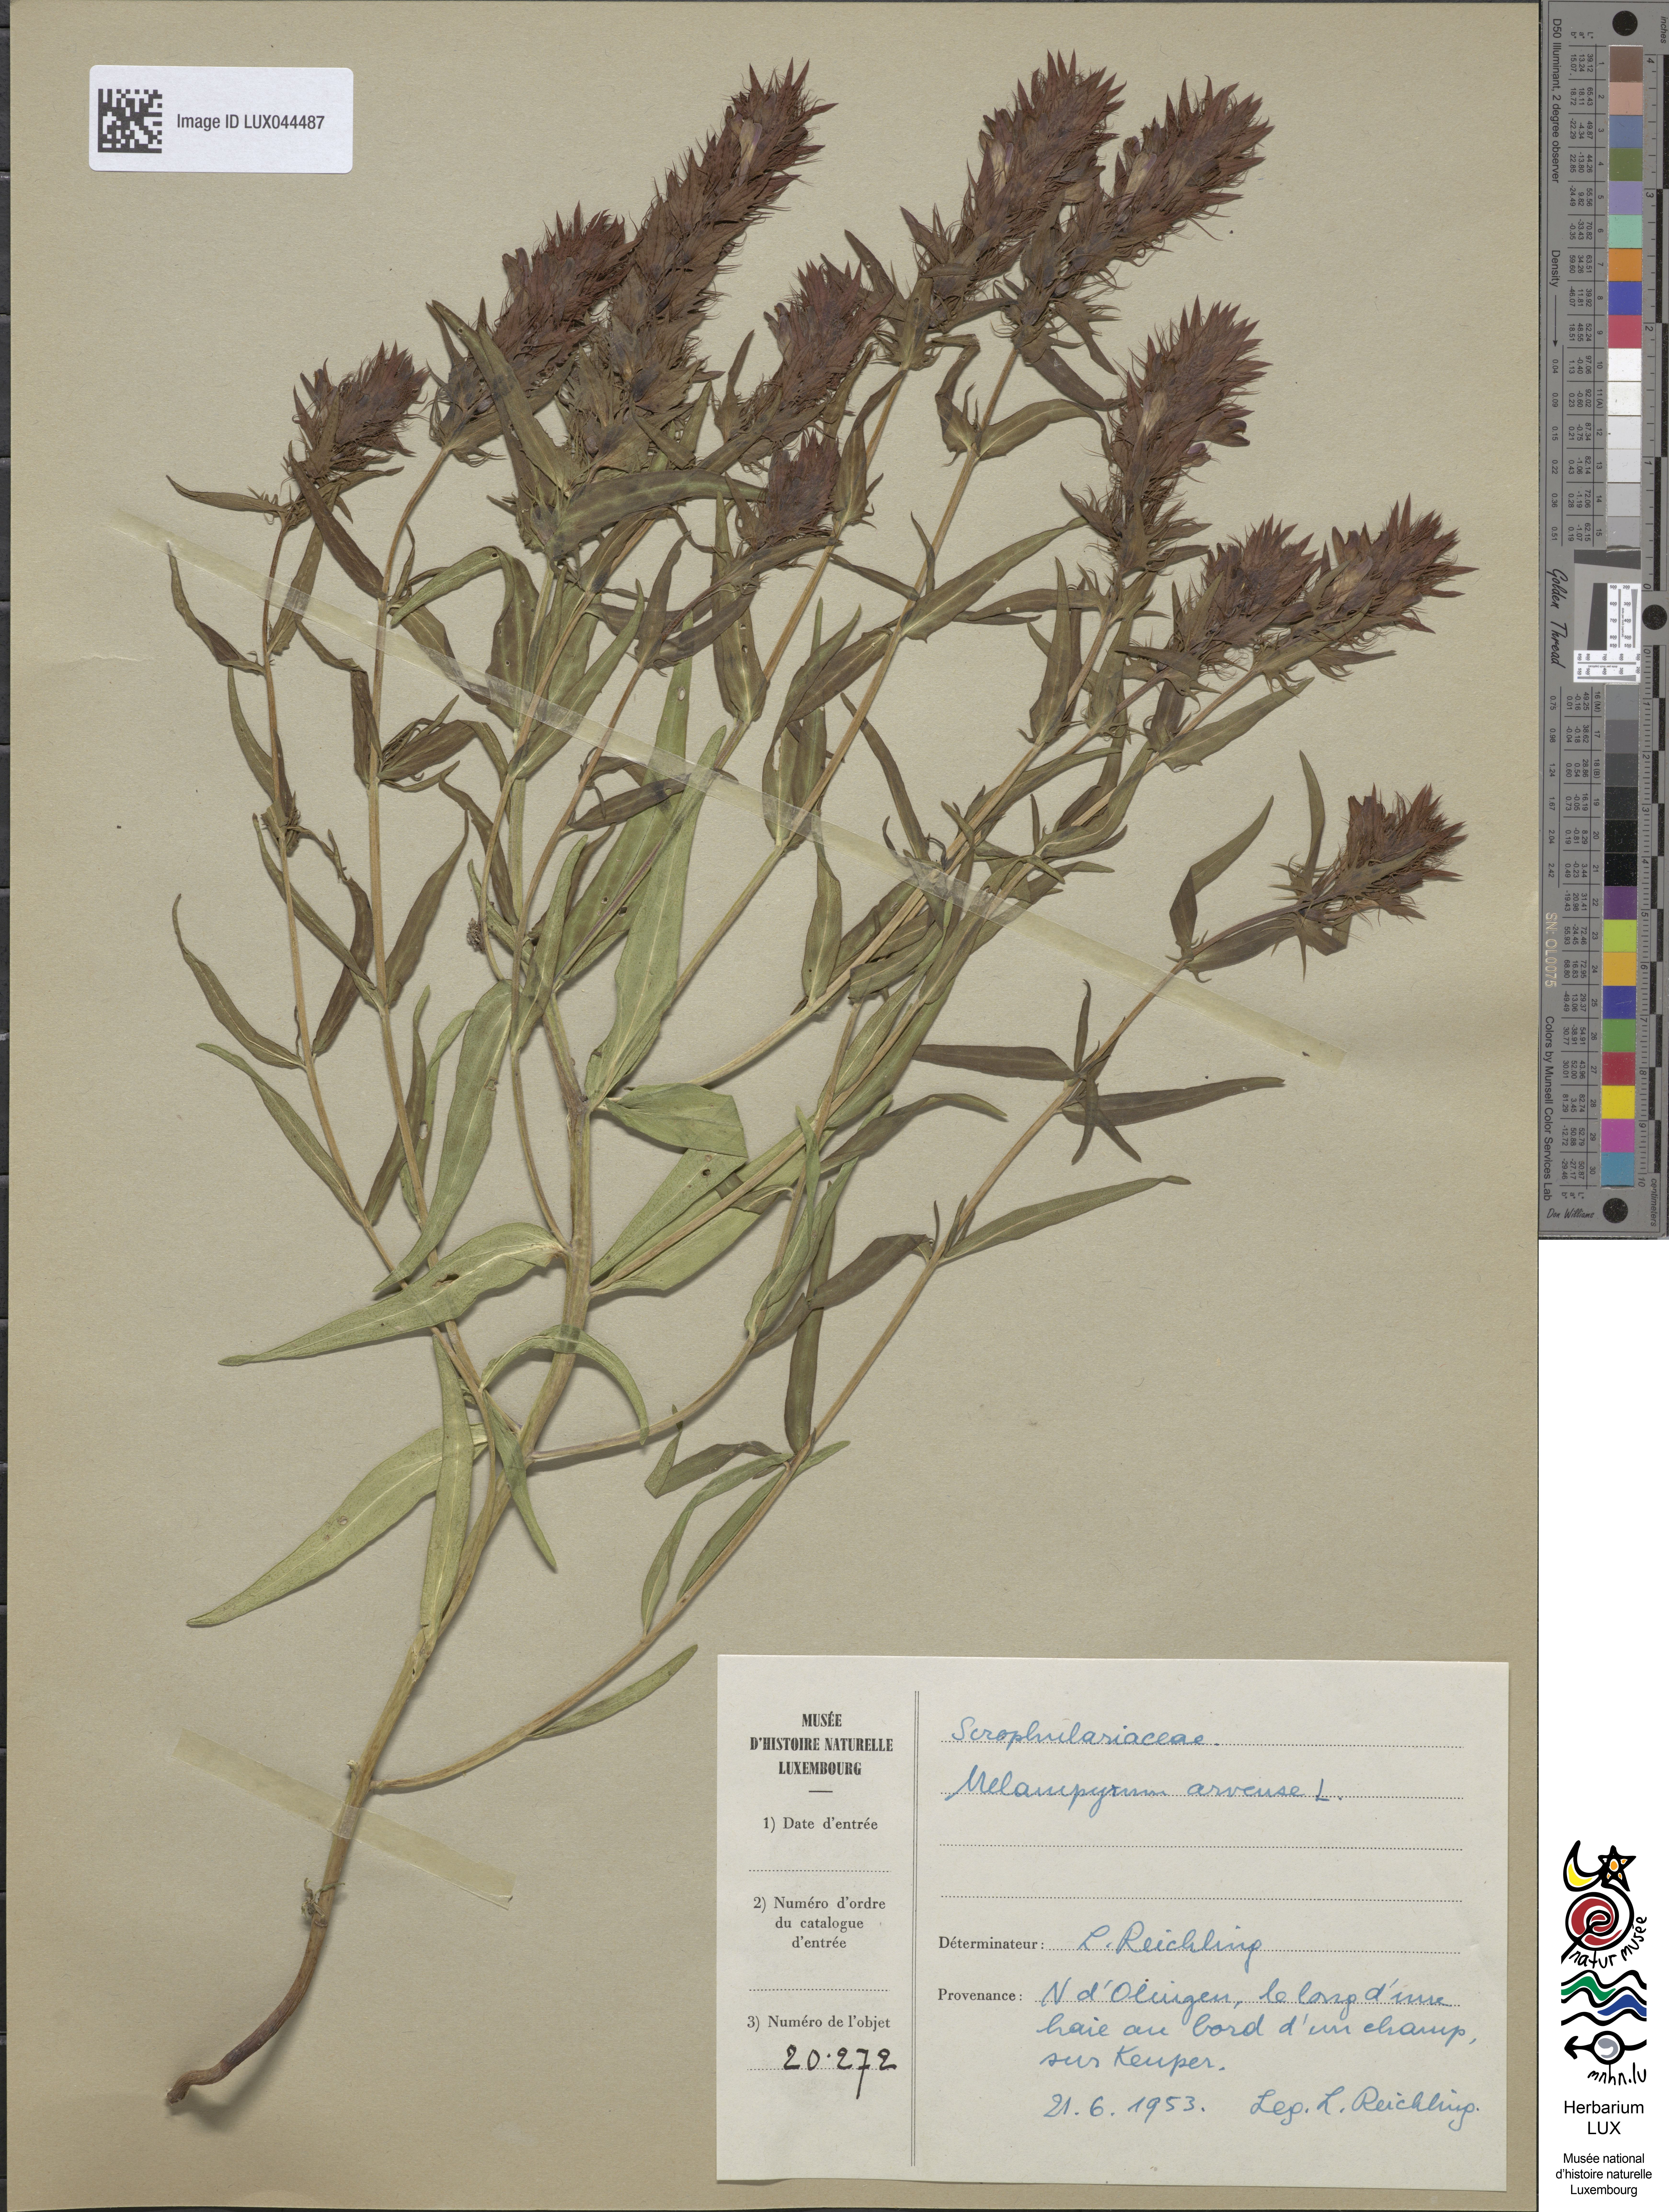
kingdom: Plantae
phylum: Tracheophyta
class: Magnoliopsida
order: Lamiales
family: Orobanchaceae
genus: Melampyrum
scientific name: Melampyrum arvense
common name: Field cow-wheat
